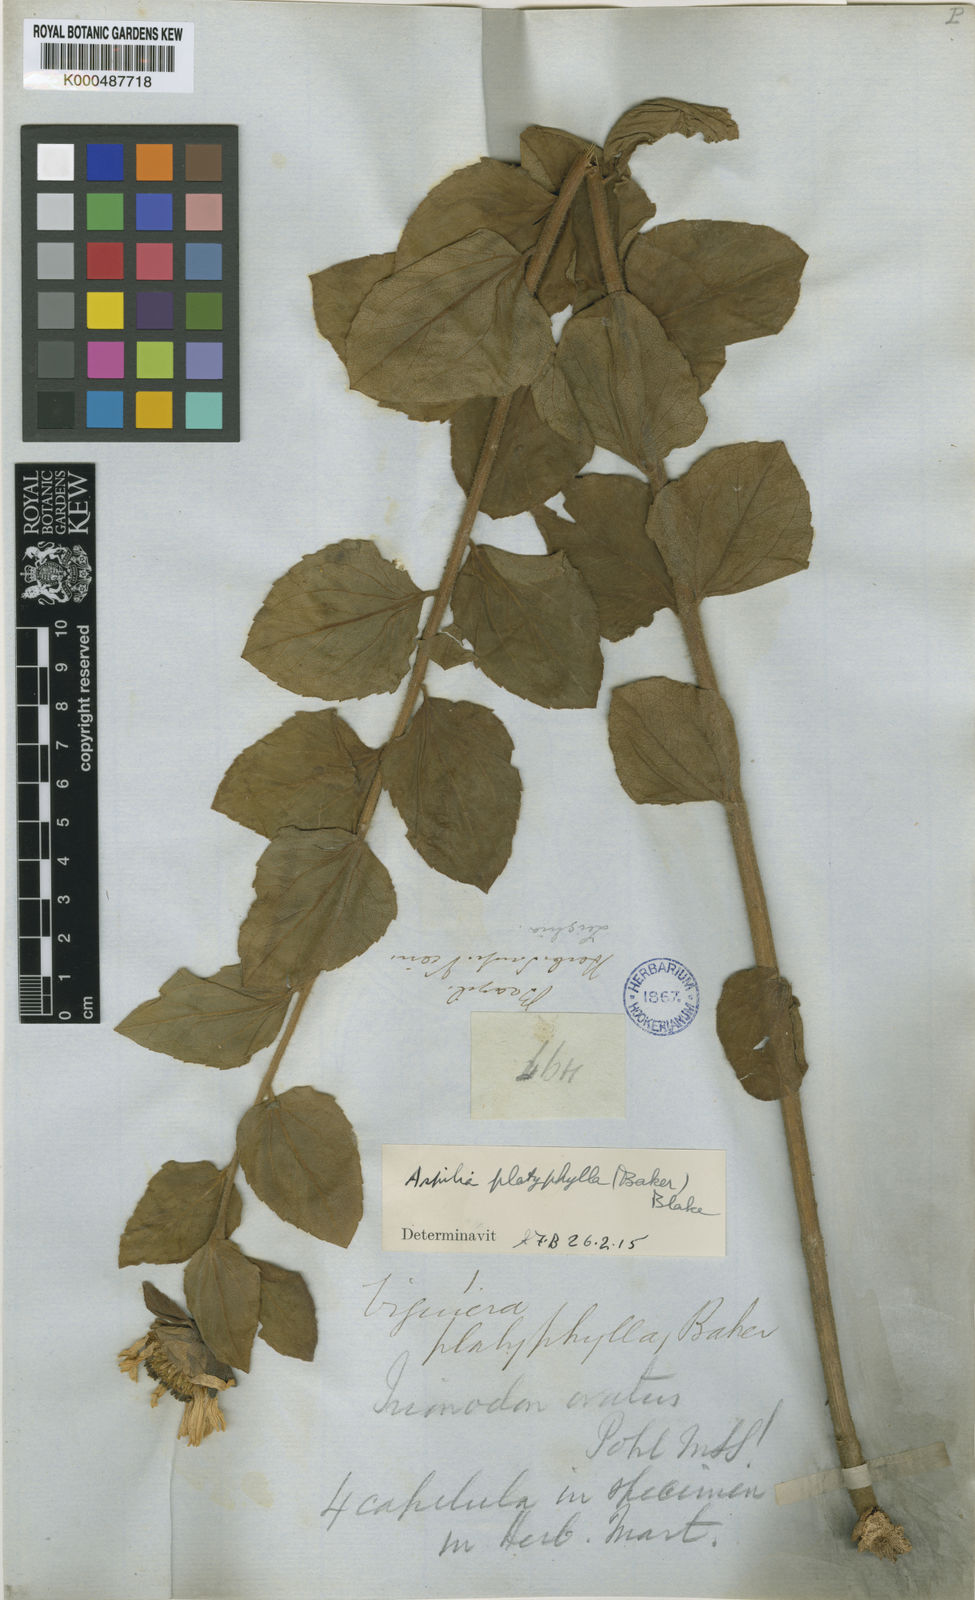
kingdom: Plantae
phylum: Tracheophyta
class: Magnoliopsida
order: Asterales
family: Asteraceae
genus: Aspilia
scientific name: Aspilia platyphylla
